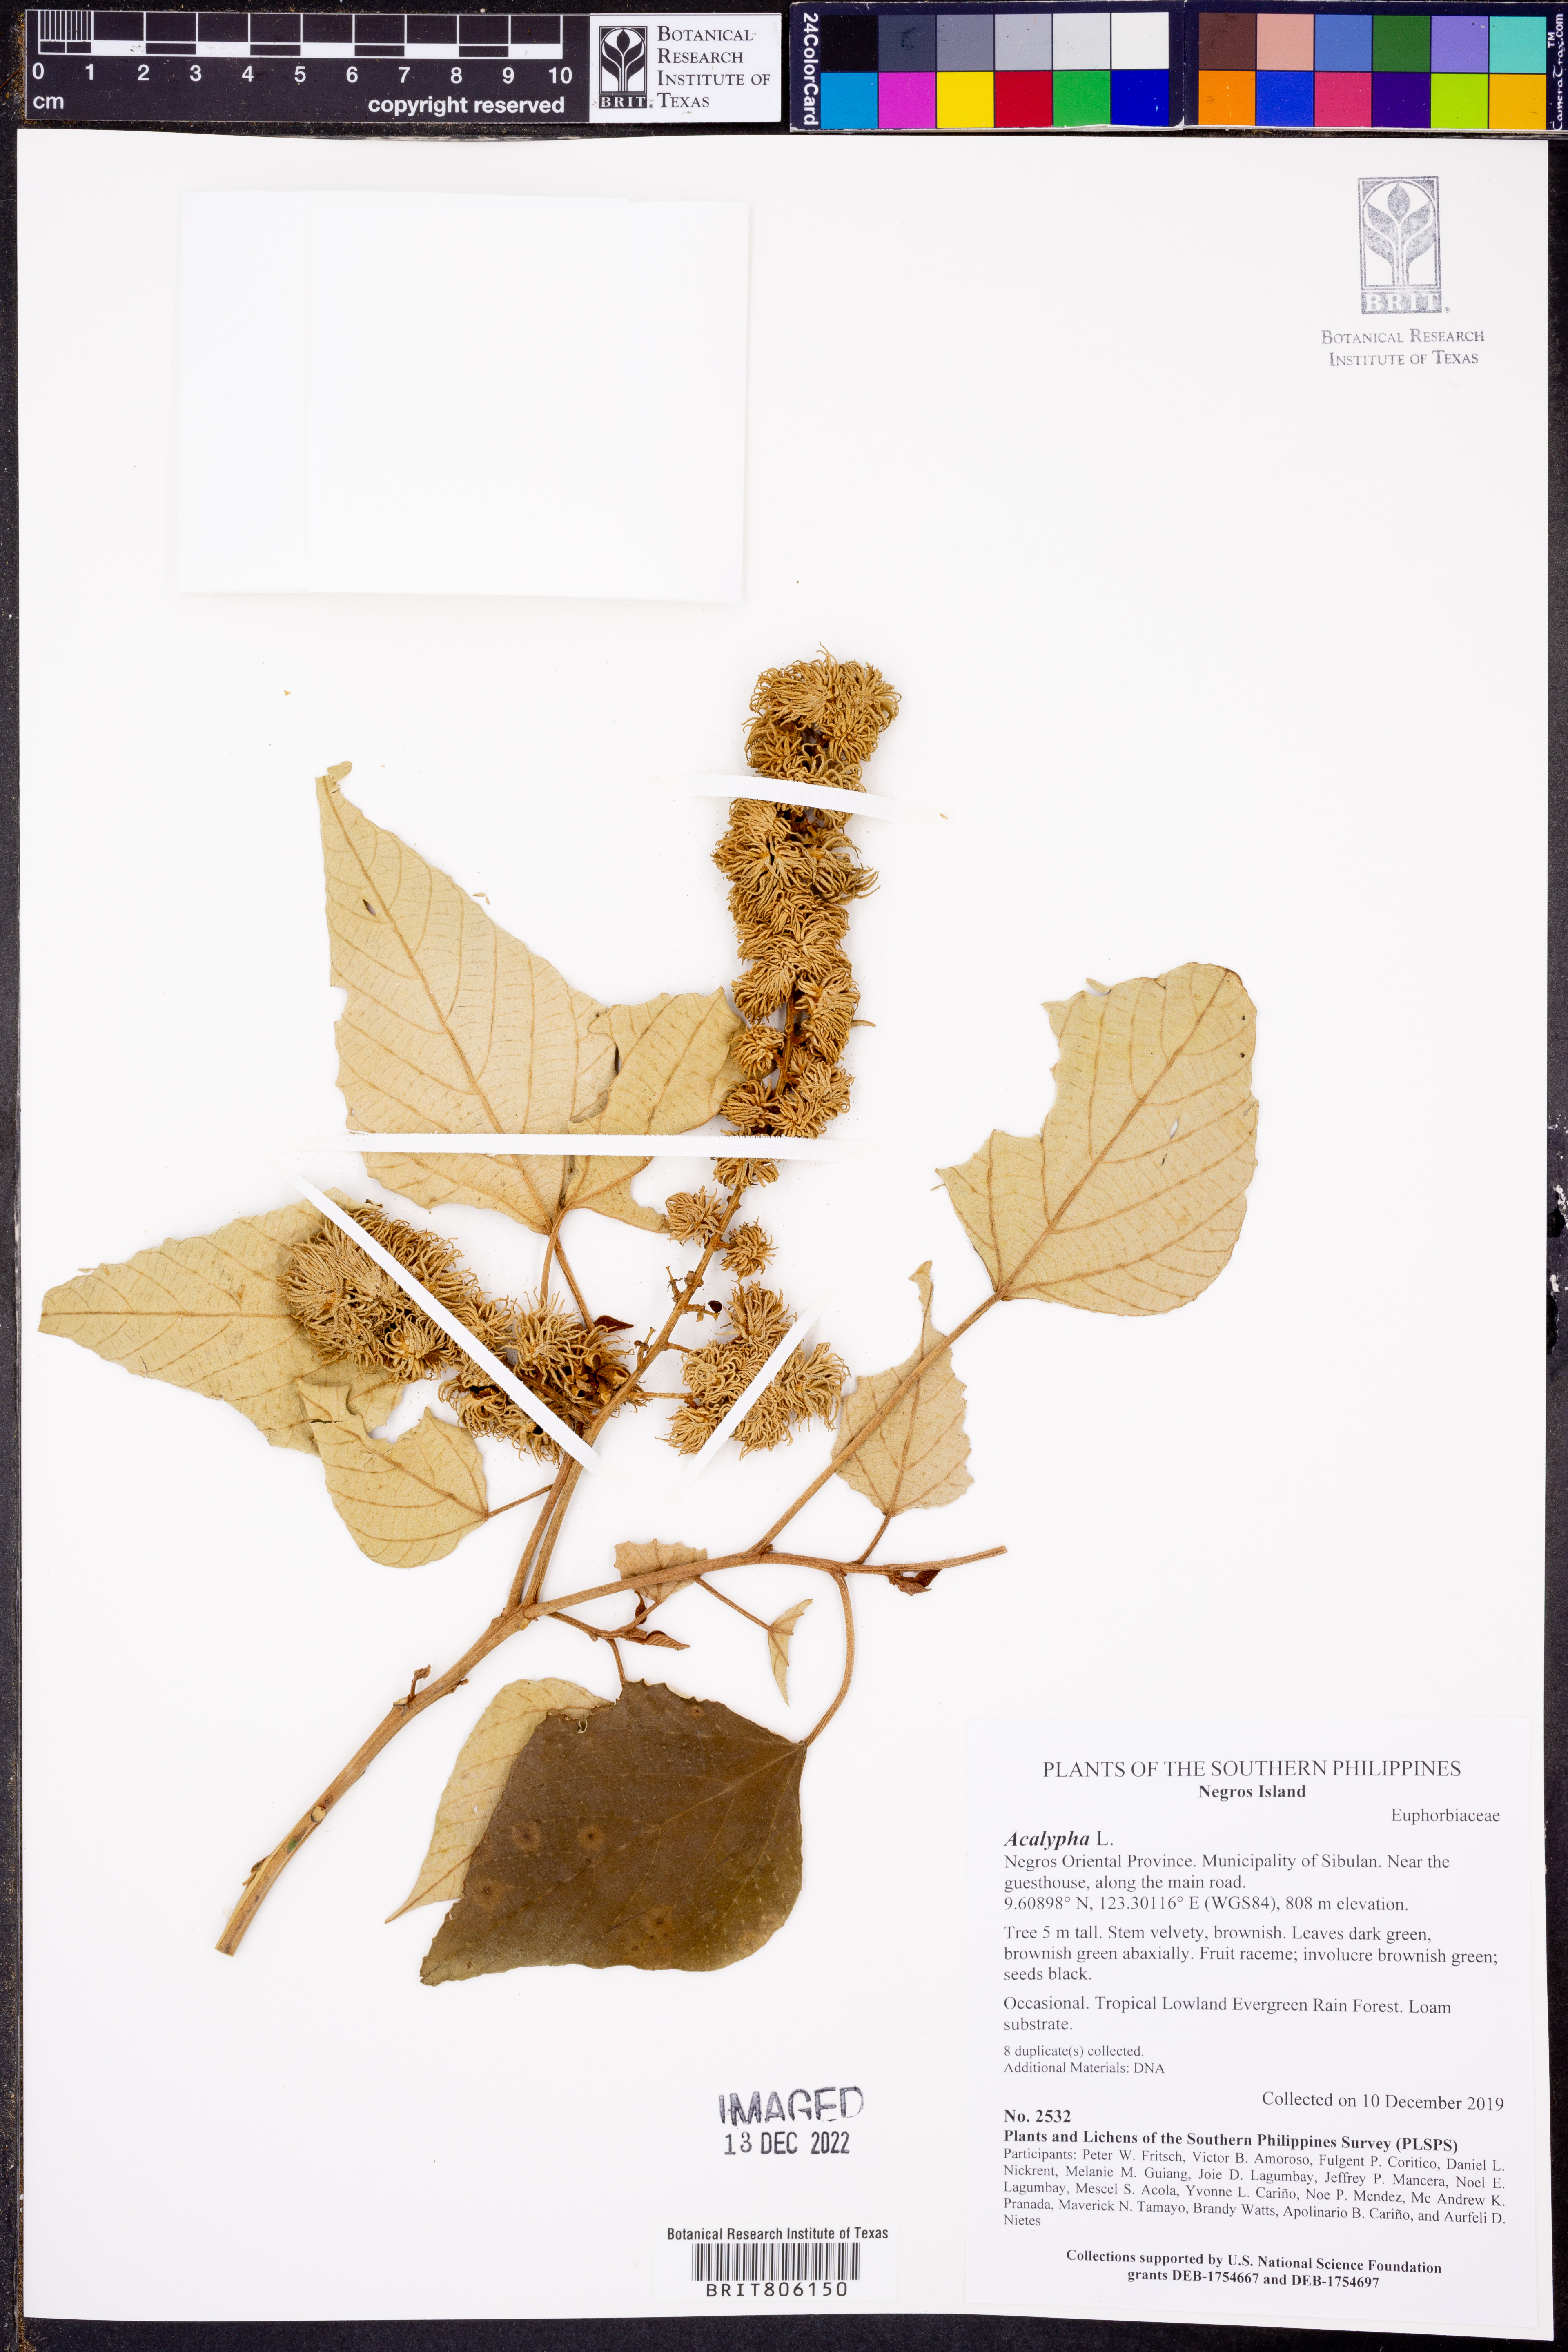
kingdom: Plantae
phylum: Tracheophyta
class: Magnoliopsida
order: Malpighiales
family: Euphorbiaceae
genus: Acalypha
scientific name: Acalypha
